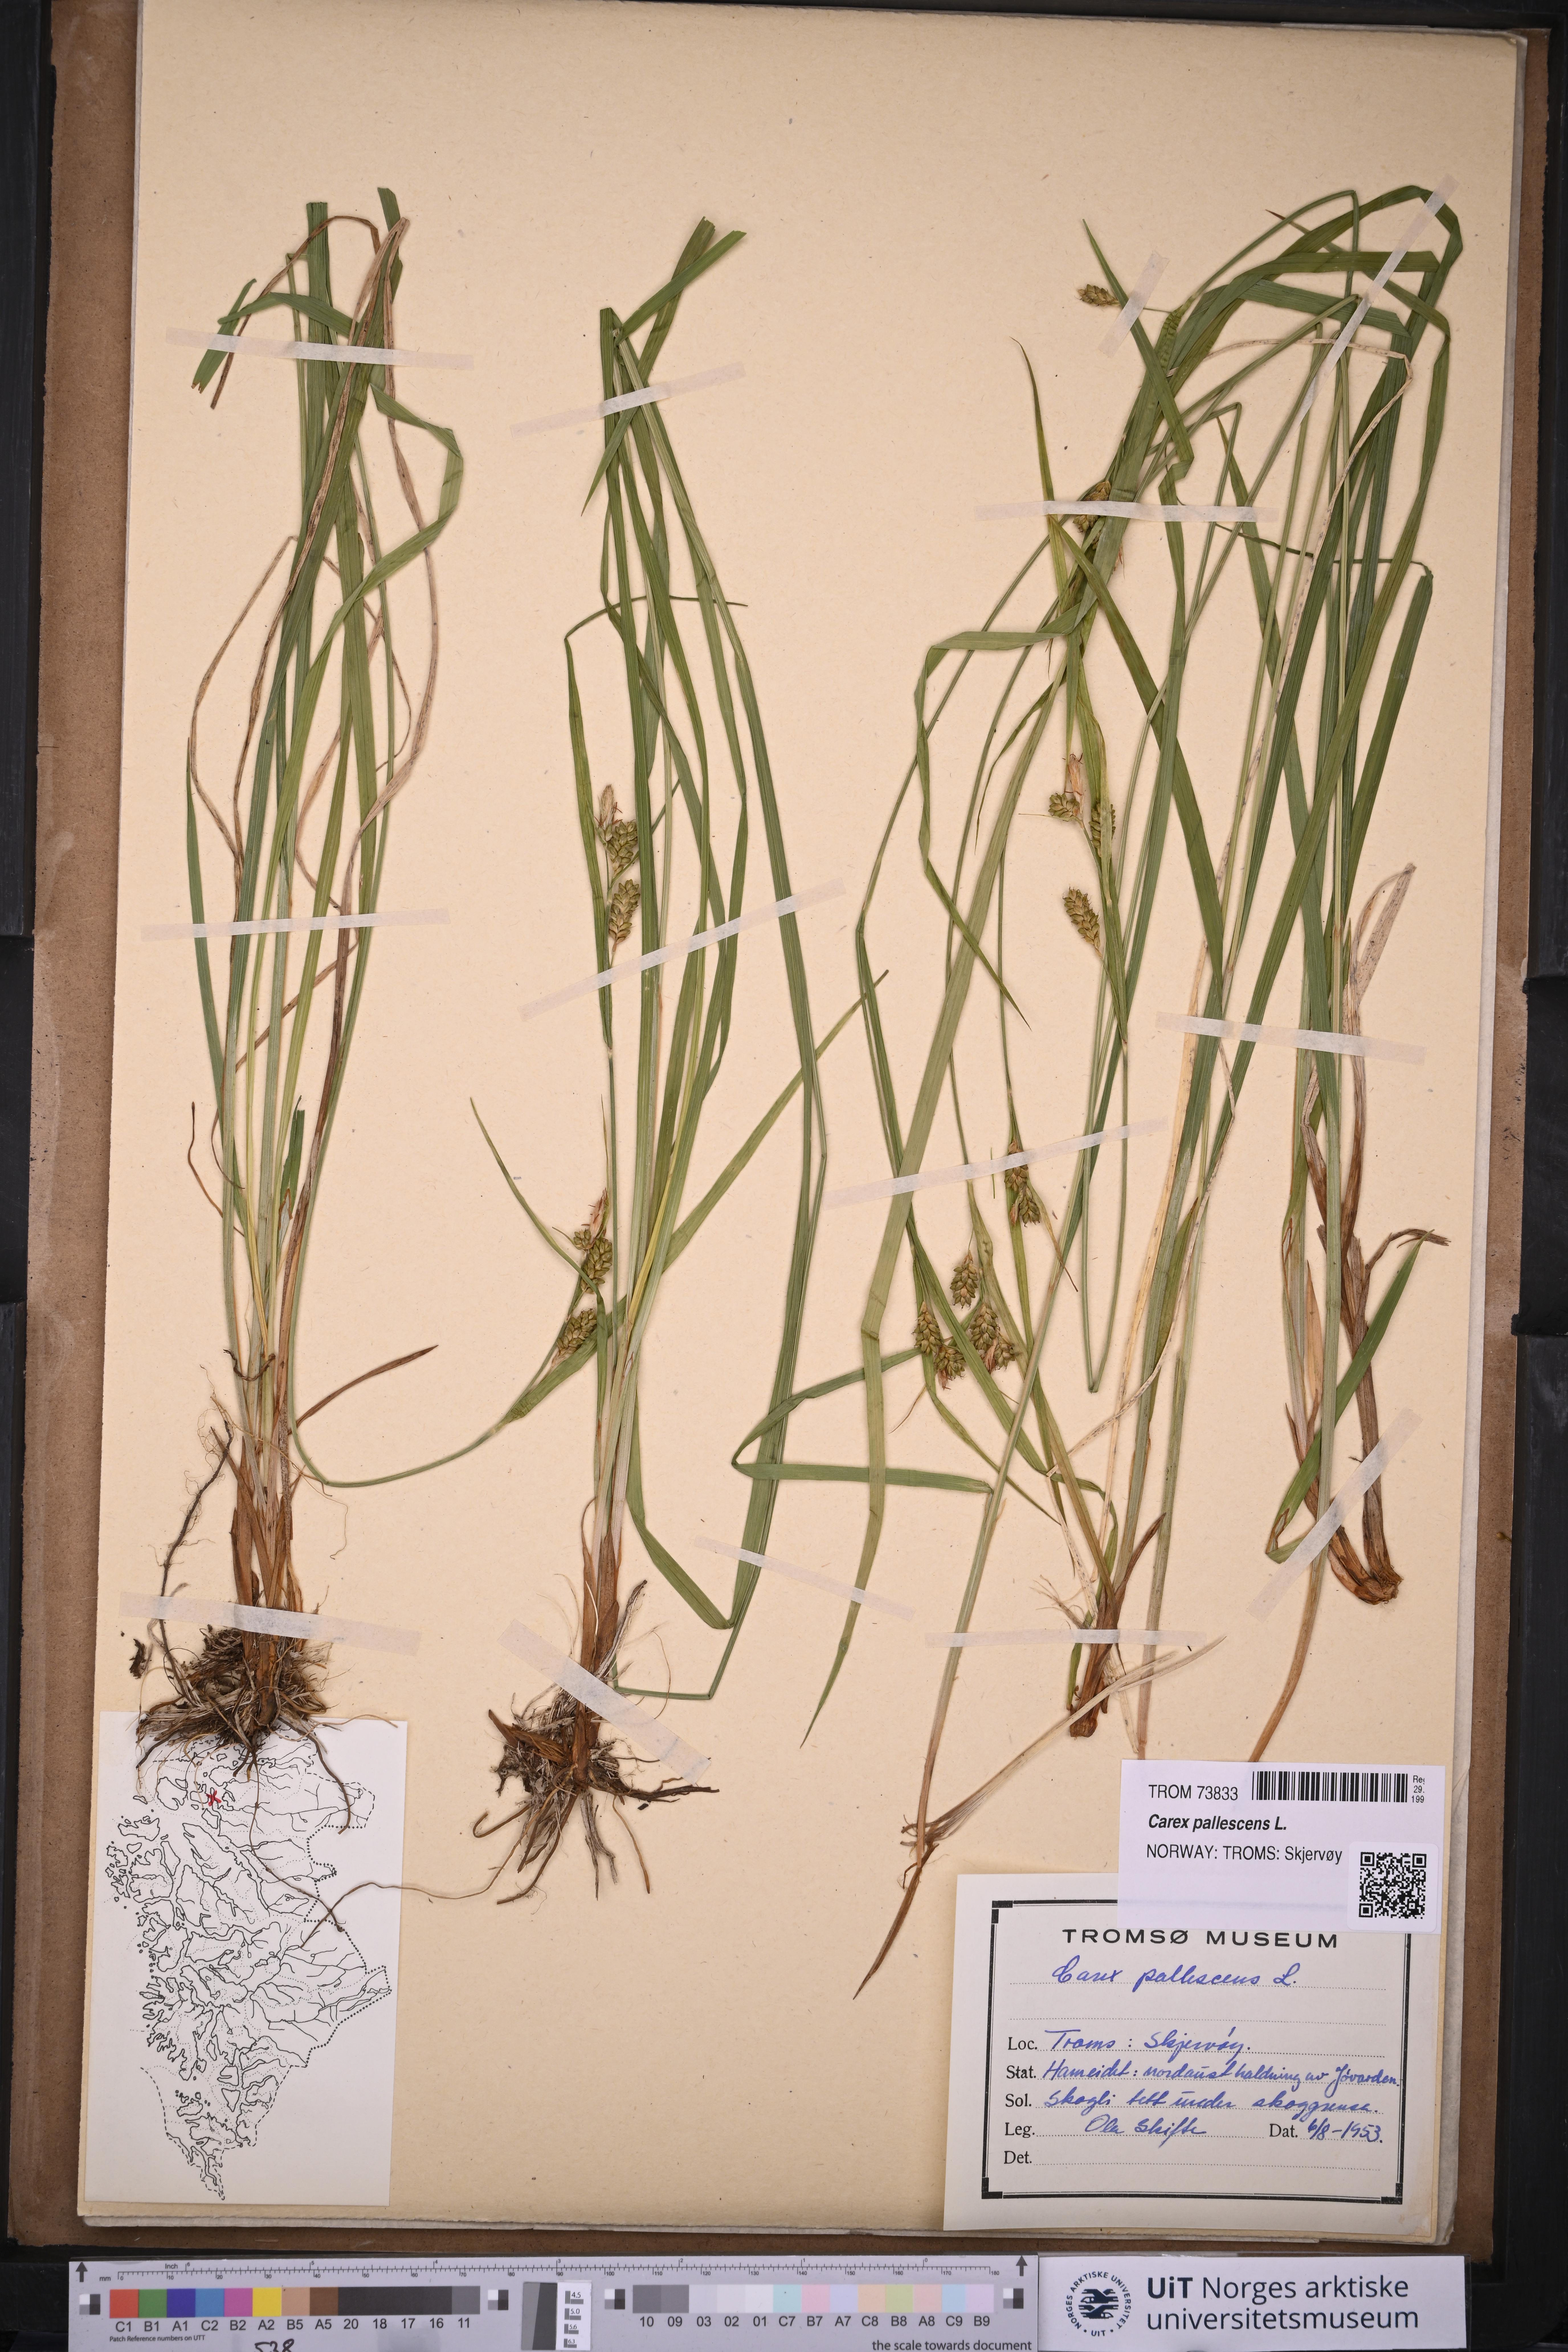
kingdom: Plantae
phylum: Tracheophyta
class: Liliopsida
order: Poales
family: Cyperaceae
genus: Carex
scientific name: Carex pallescens
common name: Pale sedge
